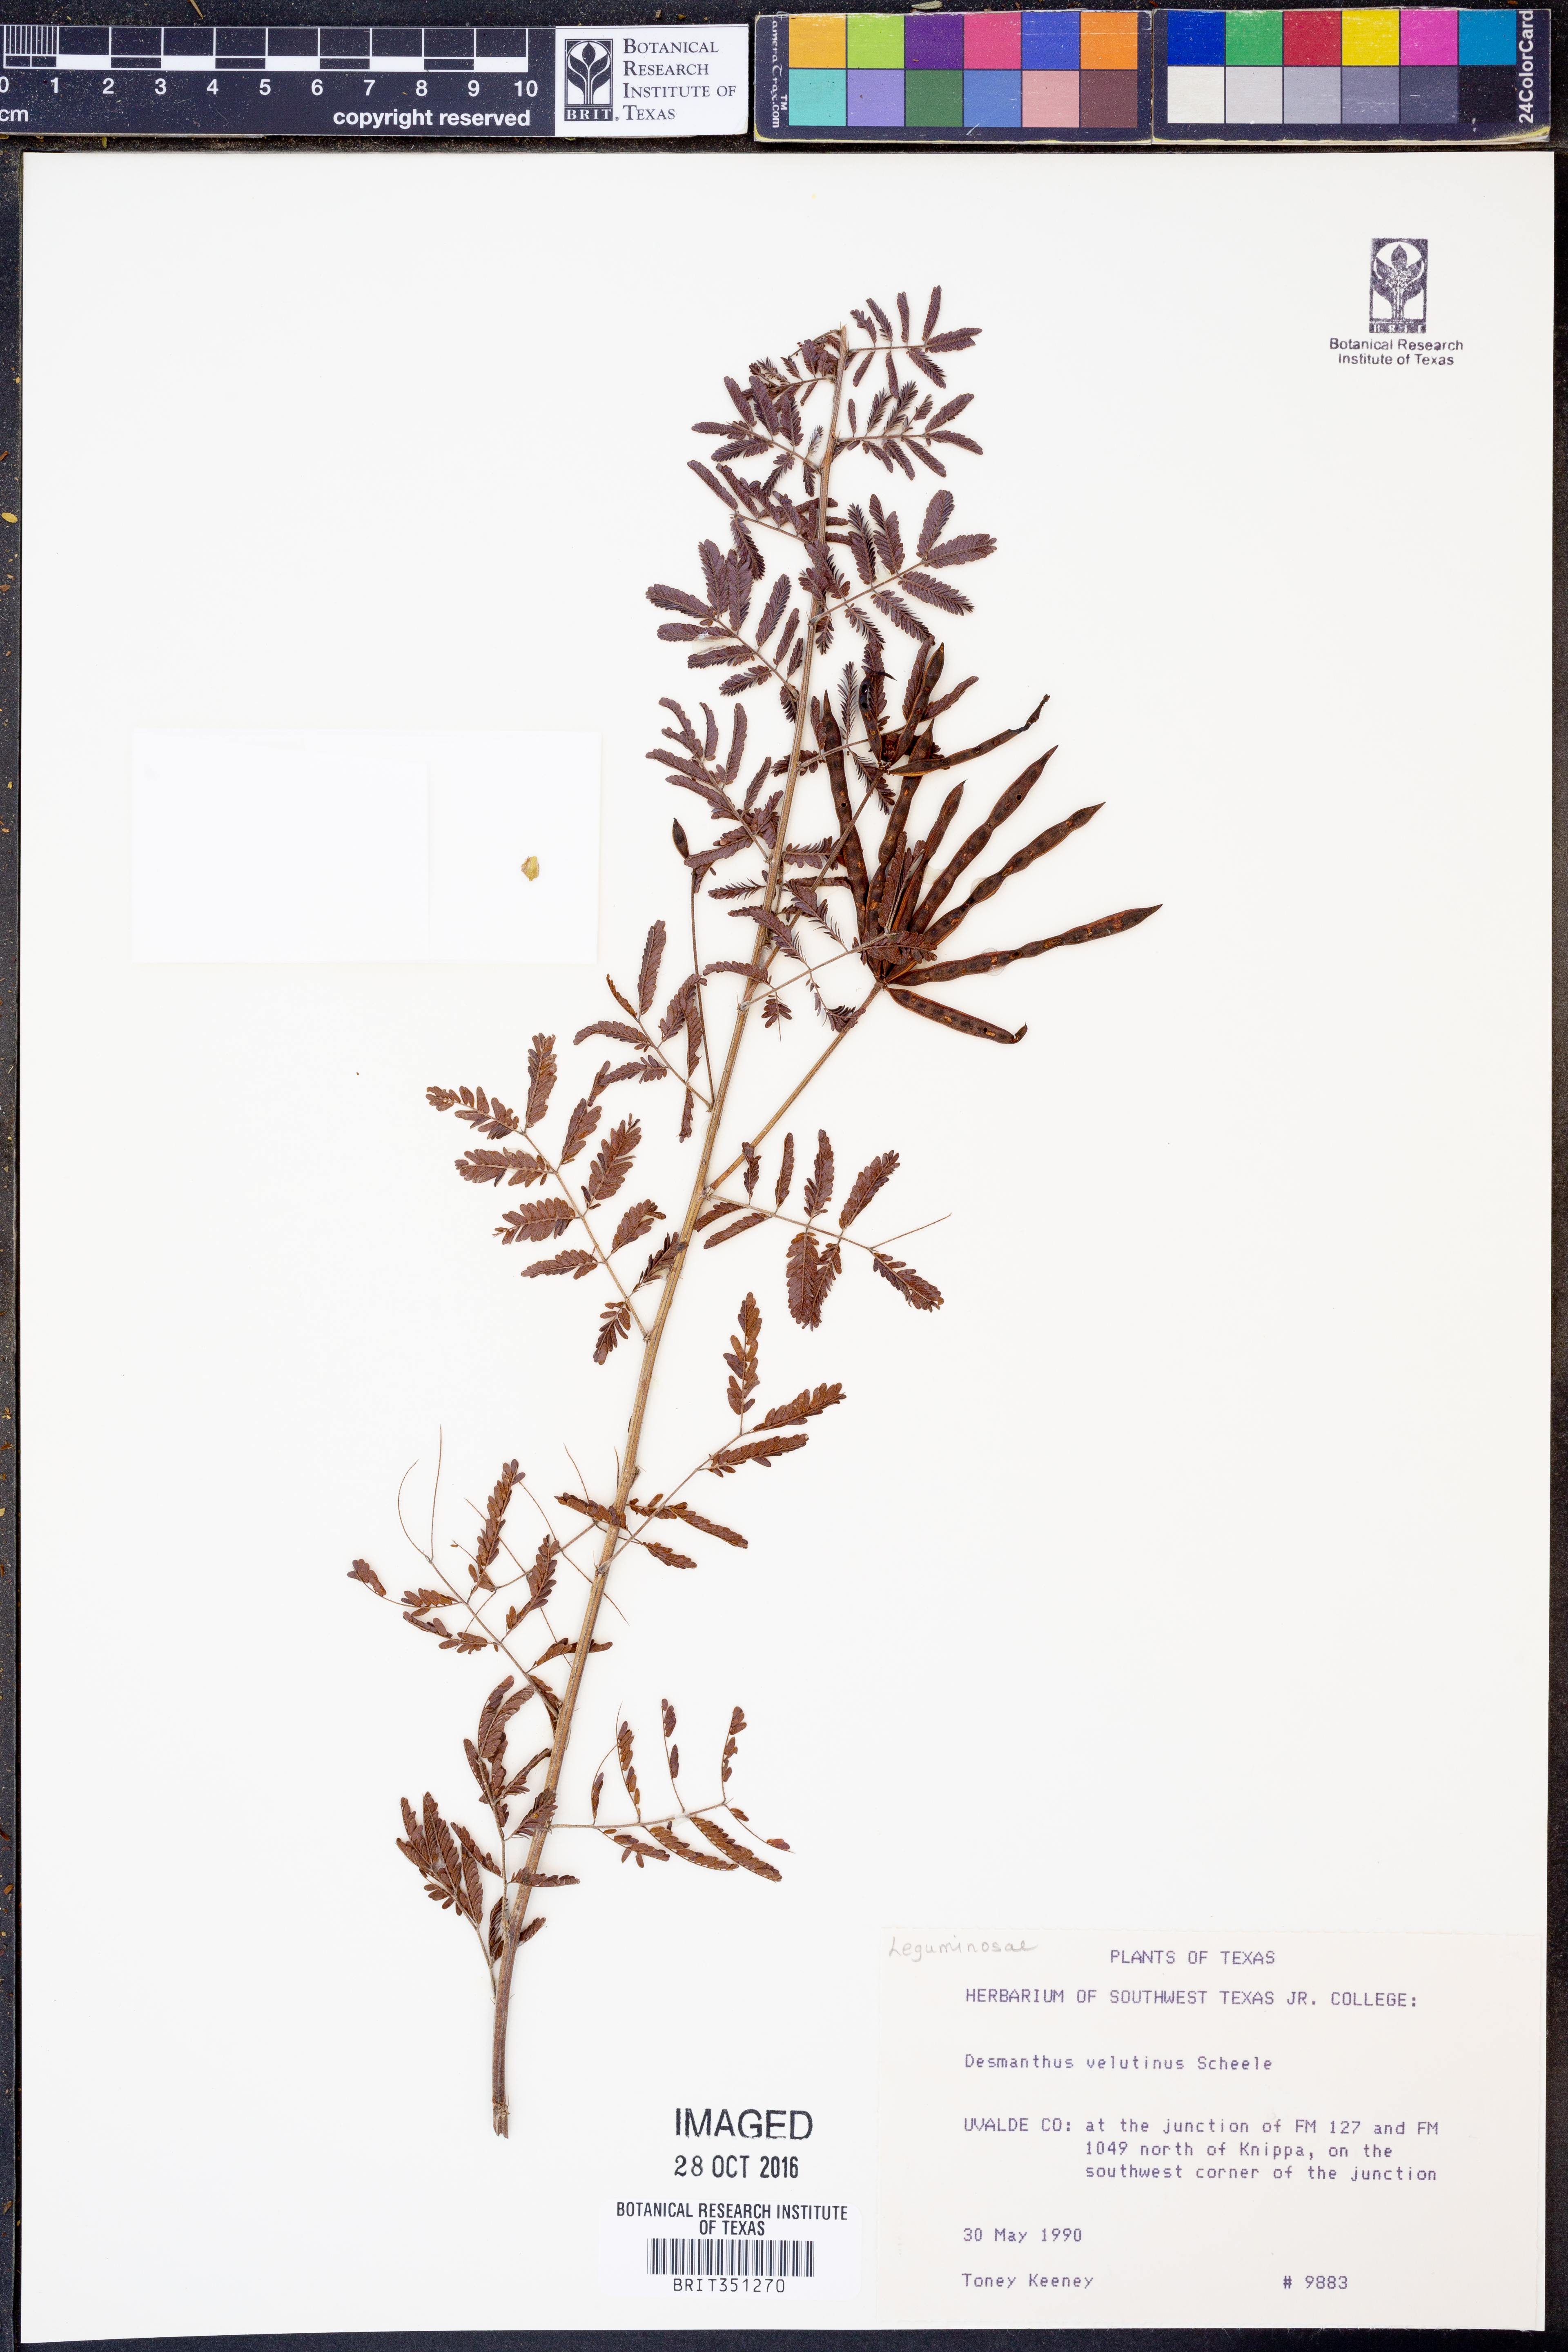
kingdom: Plantae
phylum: Tracheophyta
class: Magnoliopsida
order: Fabales
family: Fabaceae
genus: Desmanthus
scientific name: Desmanthus velutinus
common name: Velvet bundle-flower
